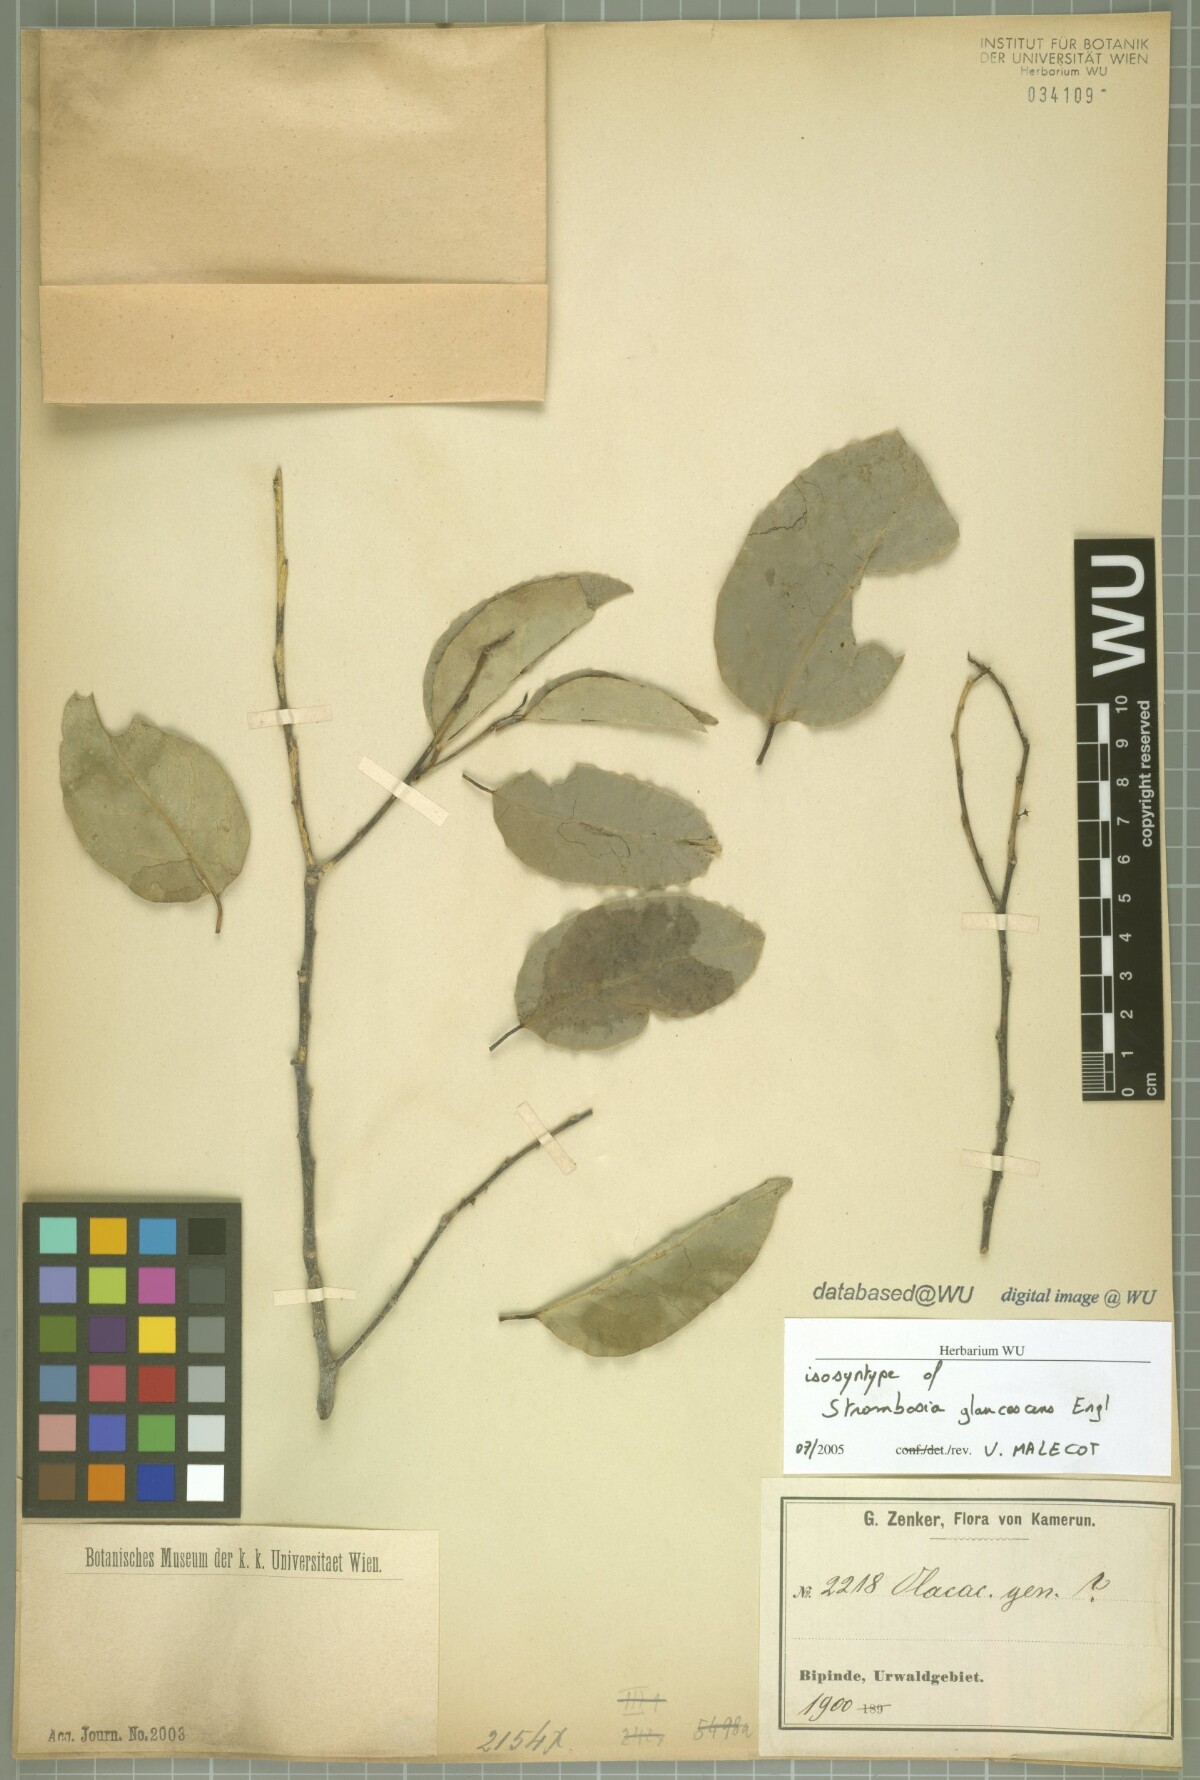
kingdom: Plantae
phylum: Tracheophyta
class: Magnoliopsida
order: Santalales
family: Strombosiaceae
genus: Strombosia
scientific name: Strombosia pustulata
